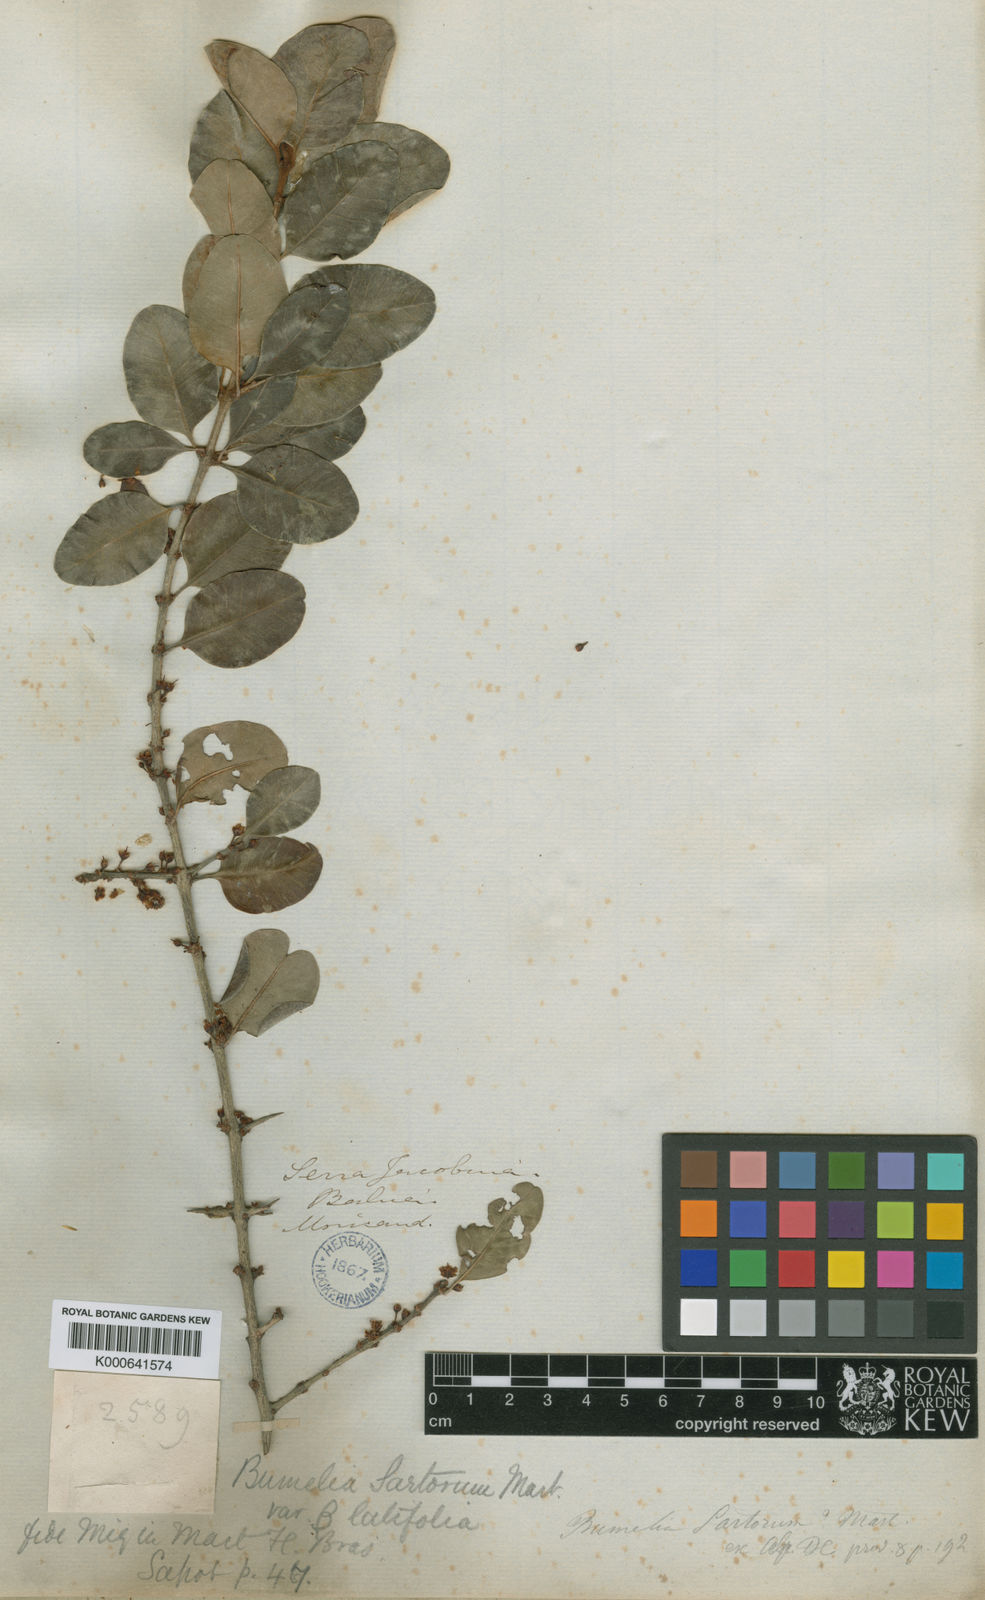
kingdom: Plantae
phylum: Tracheophyta
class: Magnoliopsida
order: Ericales
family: Sapotaceae
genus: Sideroxylon
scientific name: Sideroxylon obtusifolium
